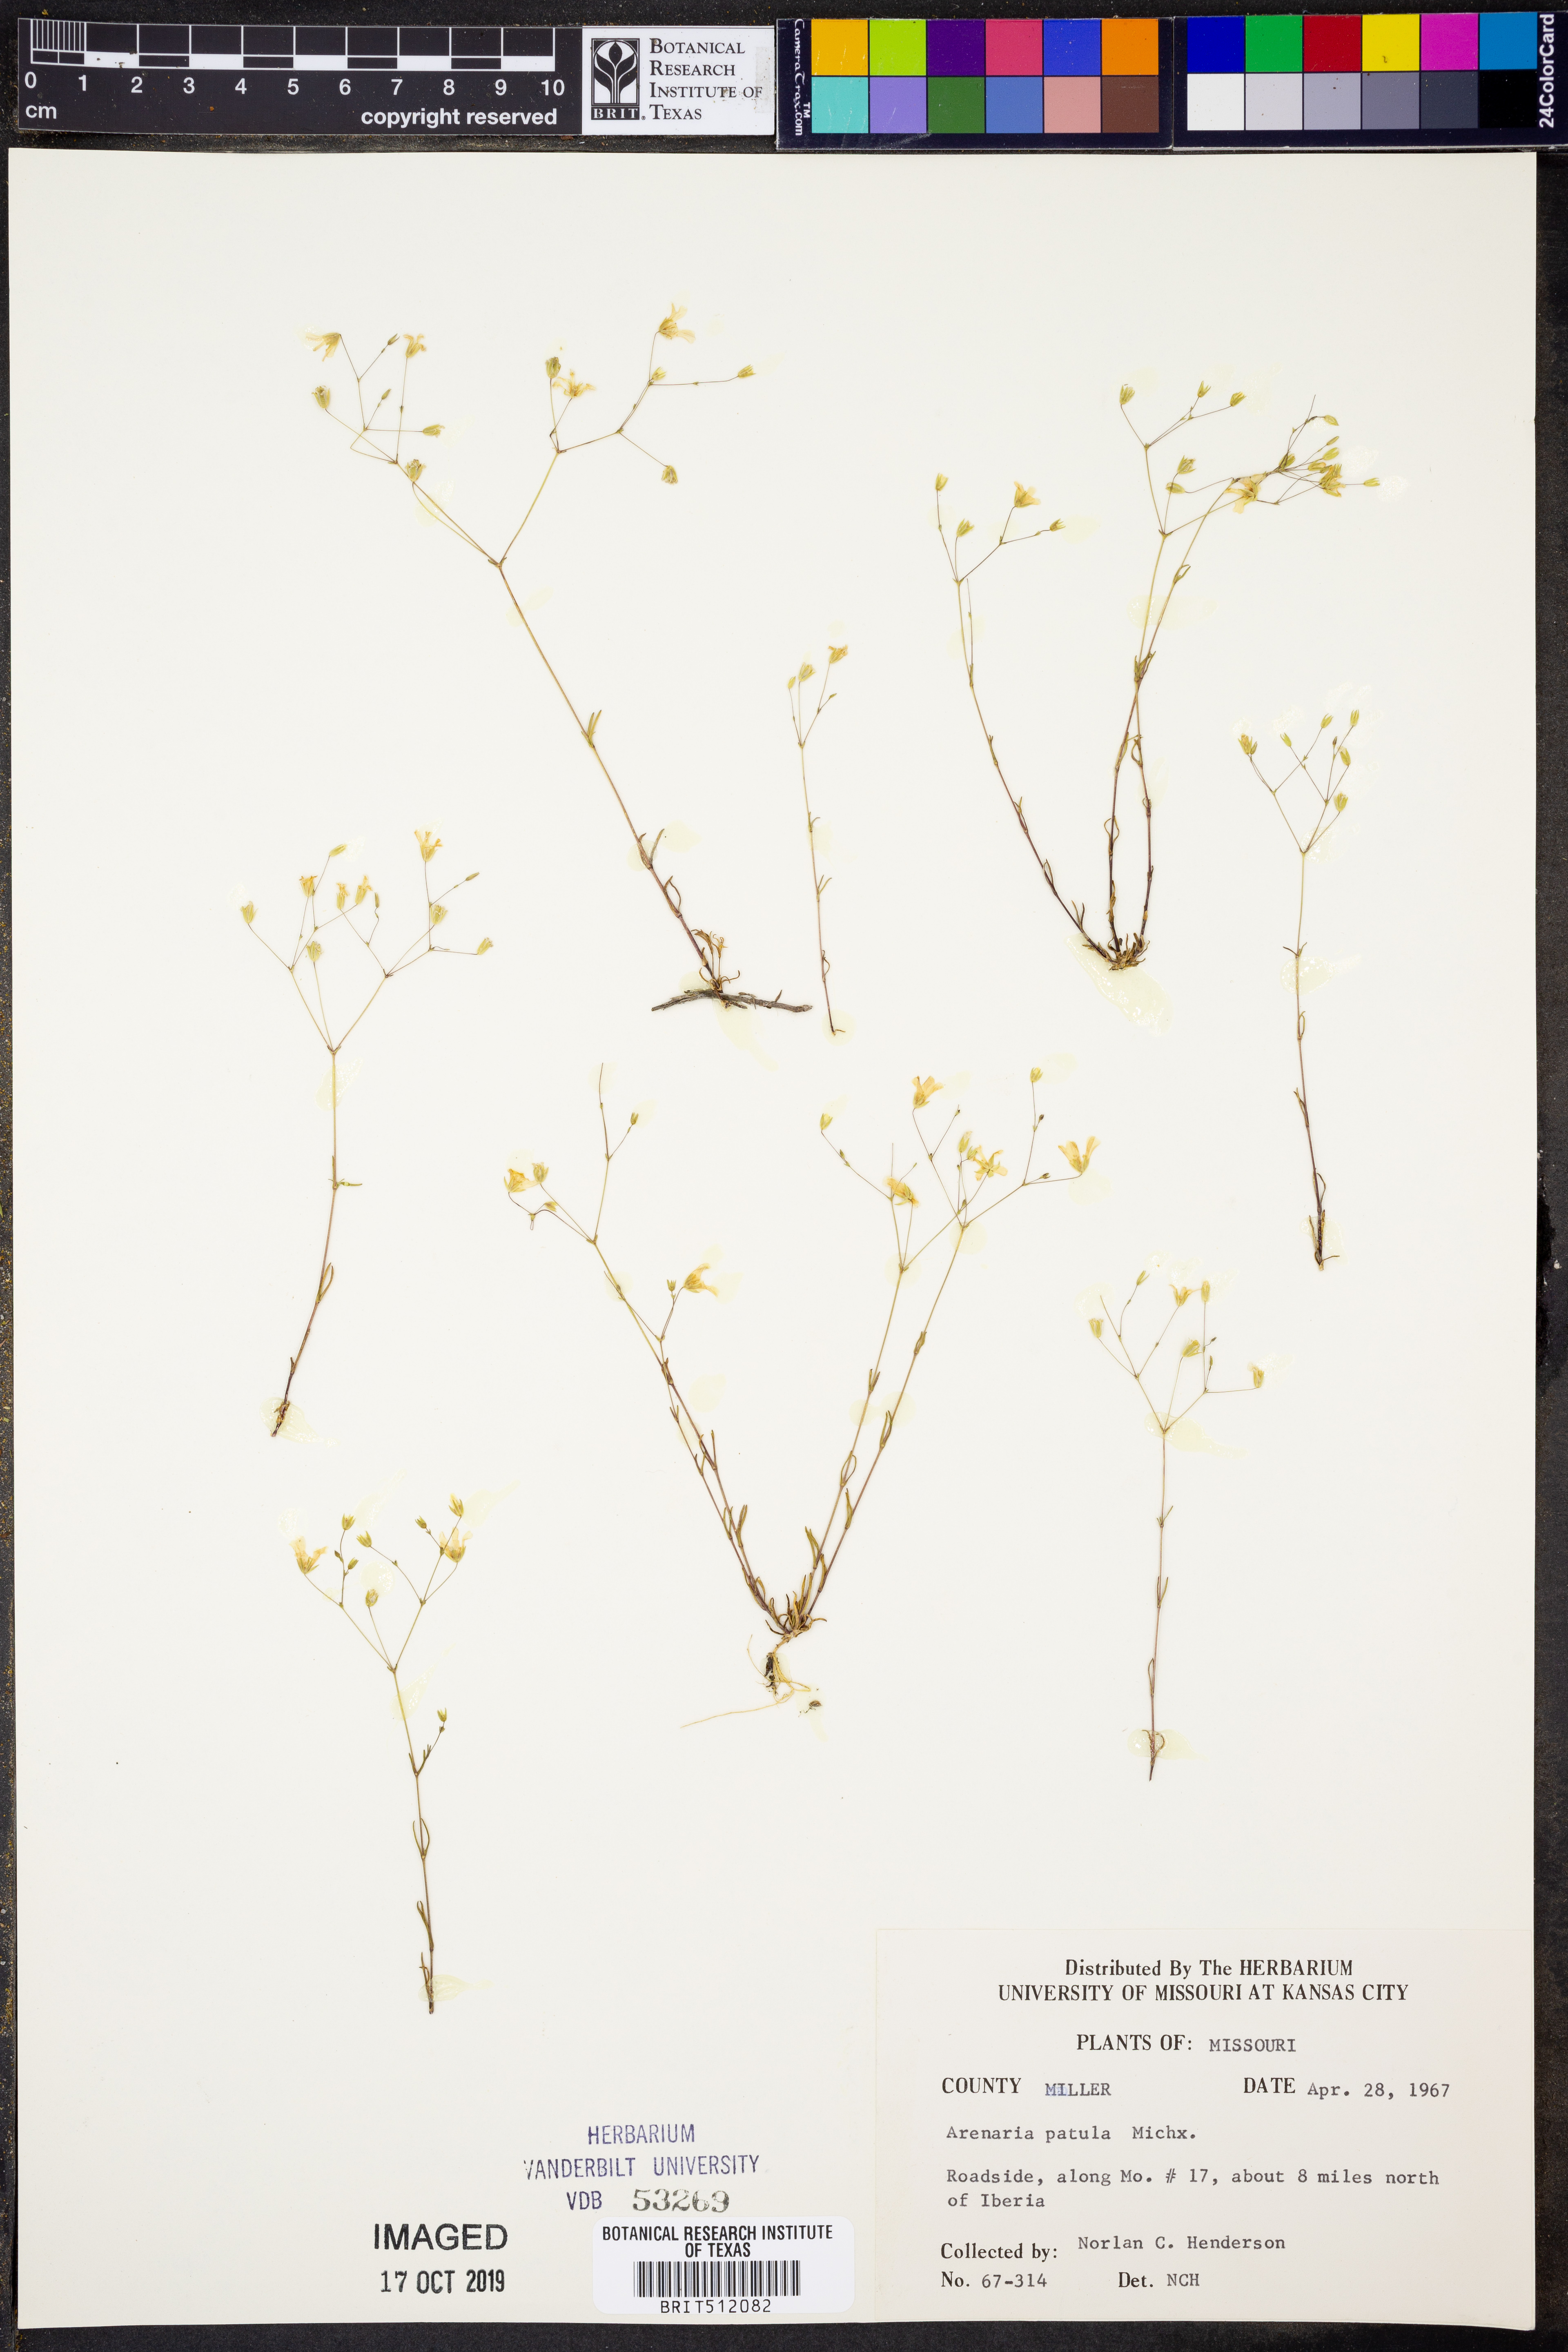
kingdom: Plantae
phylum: Tracheophyta
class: Magnoliopsida
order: Caryophyllales
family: Caryophyllaceae
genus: Mononeuria
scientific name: Mononeuria patula
